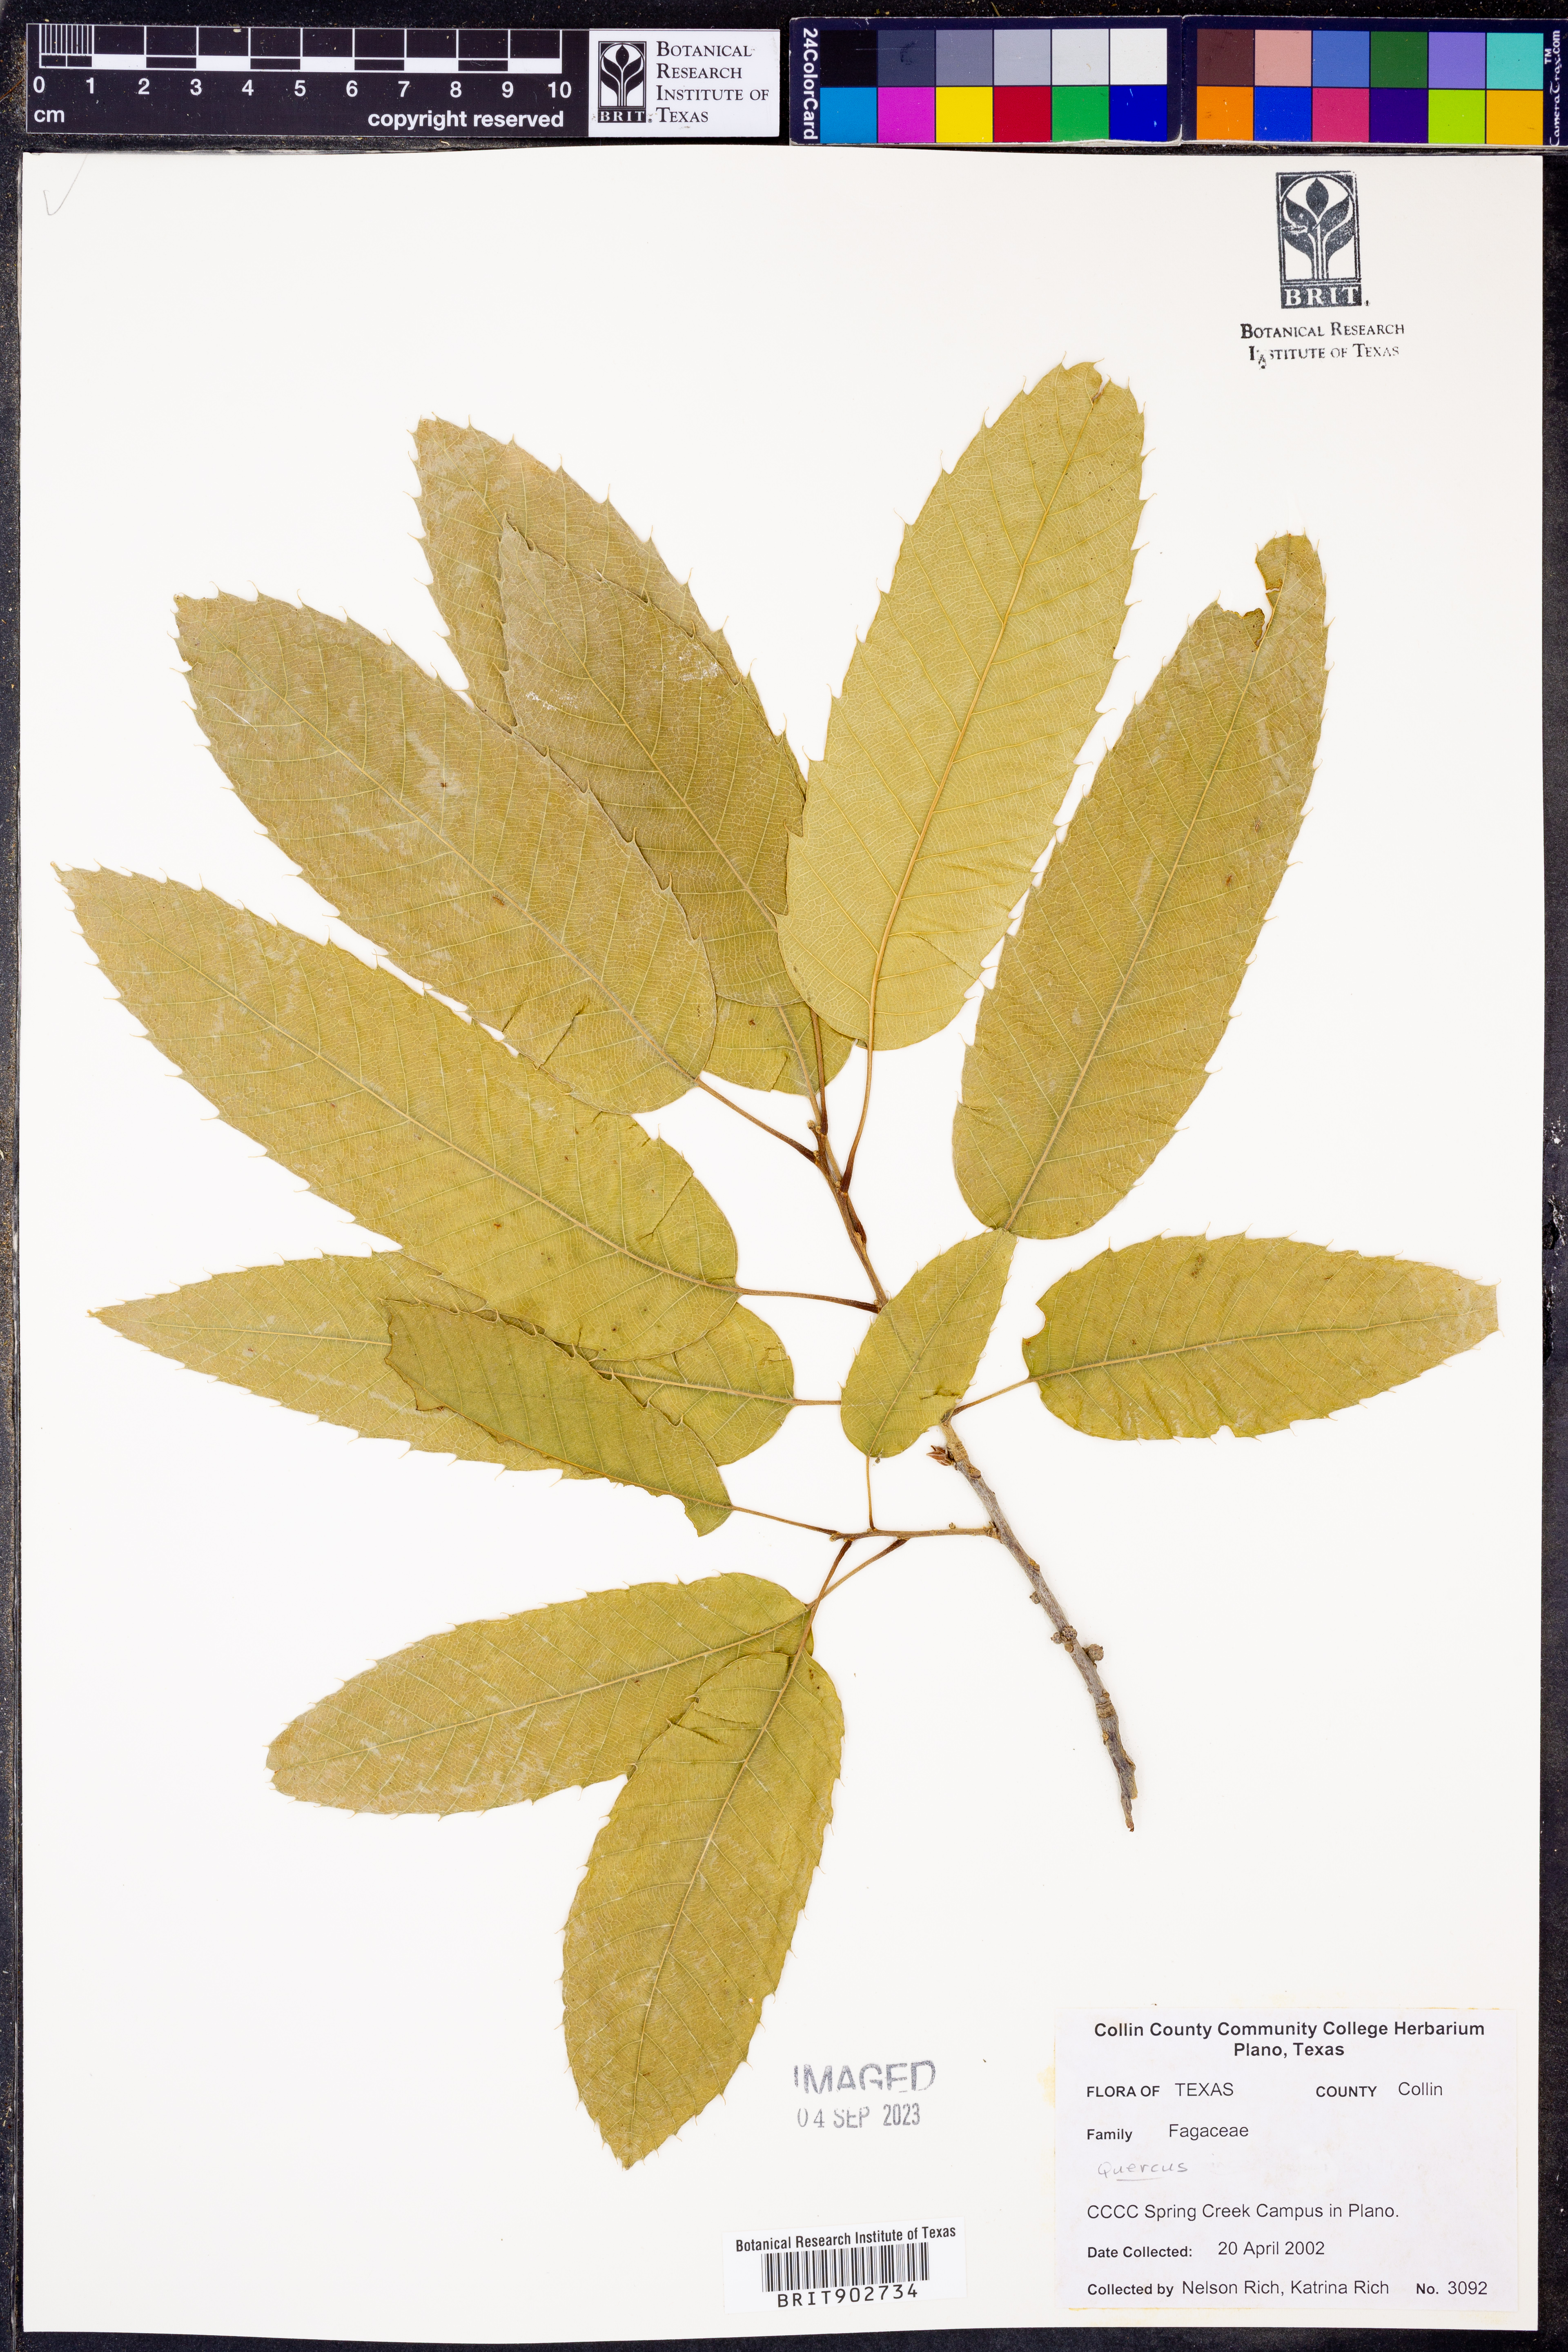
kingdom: Plantae
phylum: Tracheophyta
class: Magnoliopsida
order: Fagales
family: Fagaceae
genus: Quercus
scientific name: Quercus
